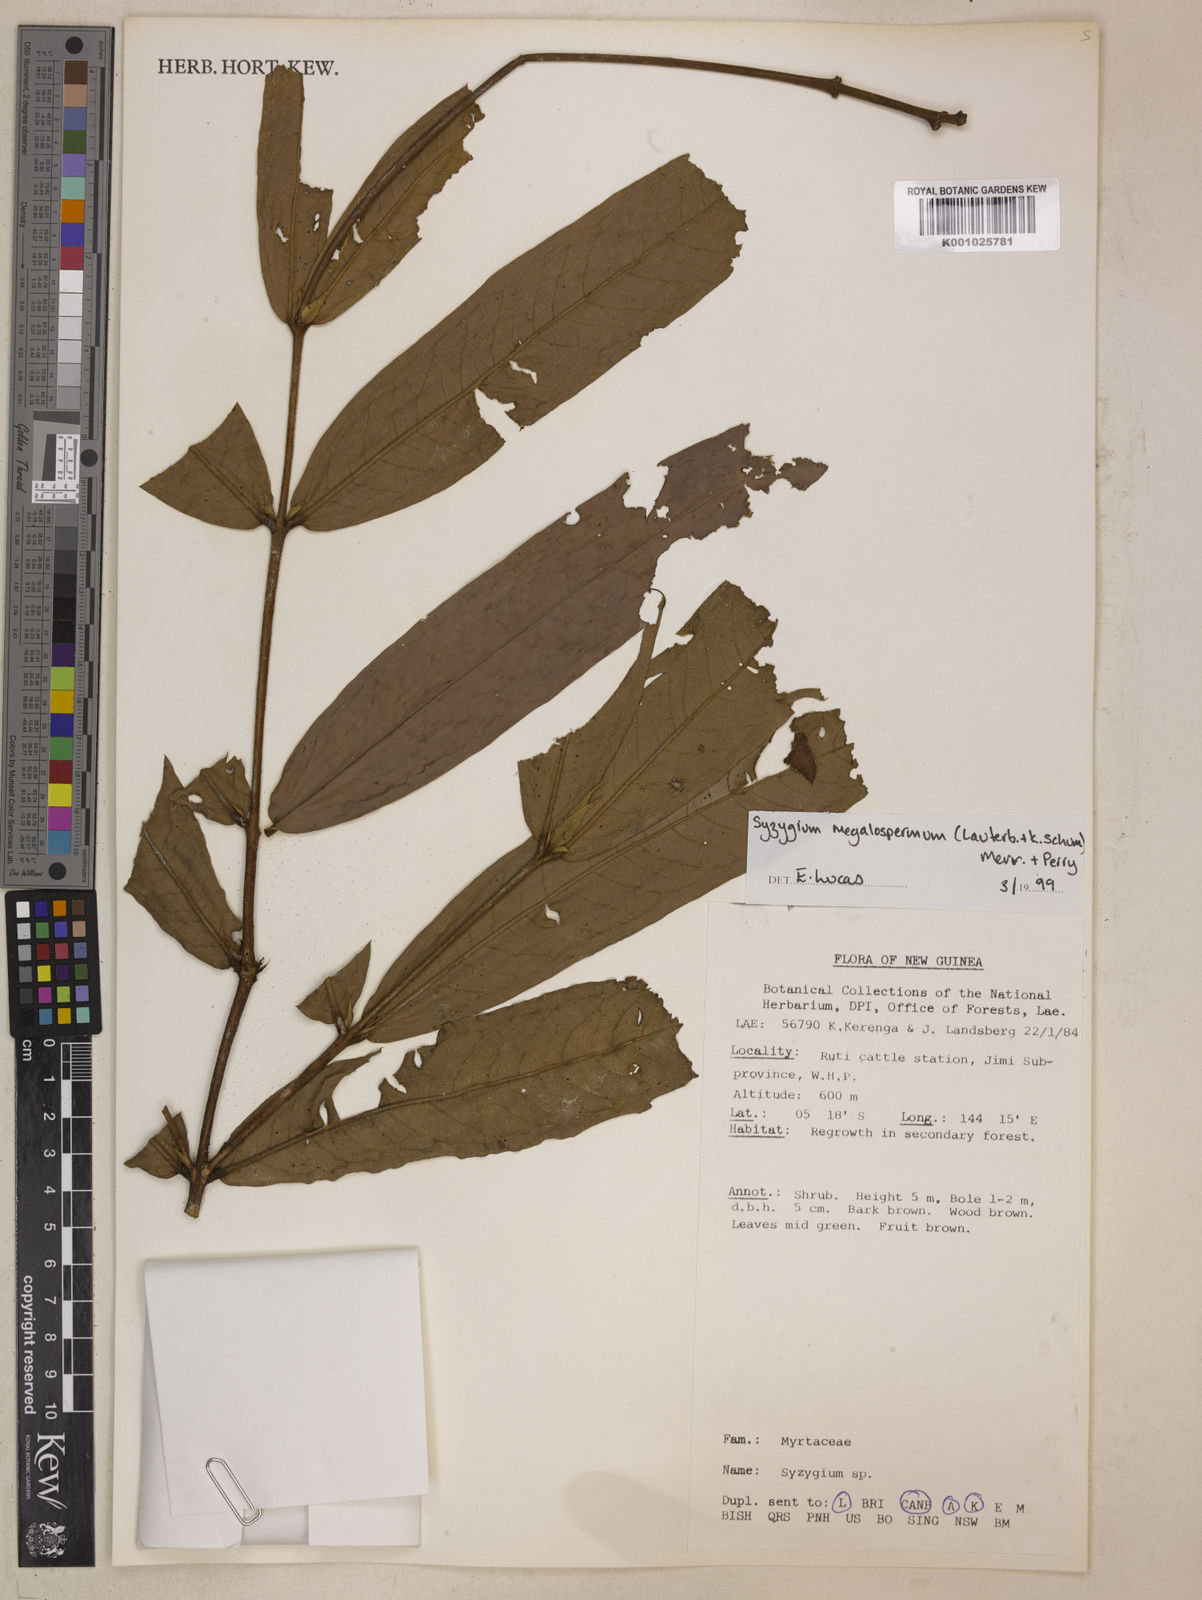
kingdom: Plantae
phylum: Tracheophyta
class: Magnoliopsida
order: Myrtales
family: Myrtaceae
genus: Syzygium
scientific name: Syzygium megalospermum
